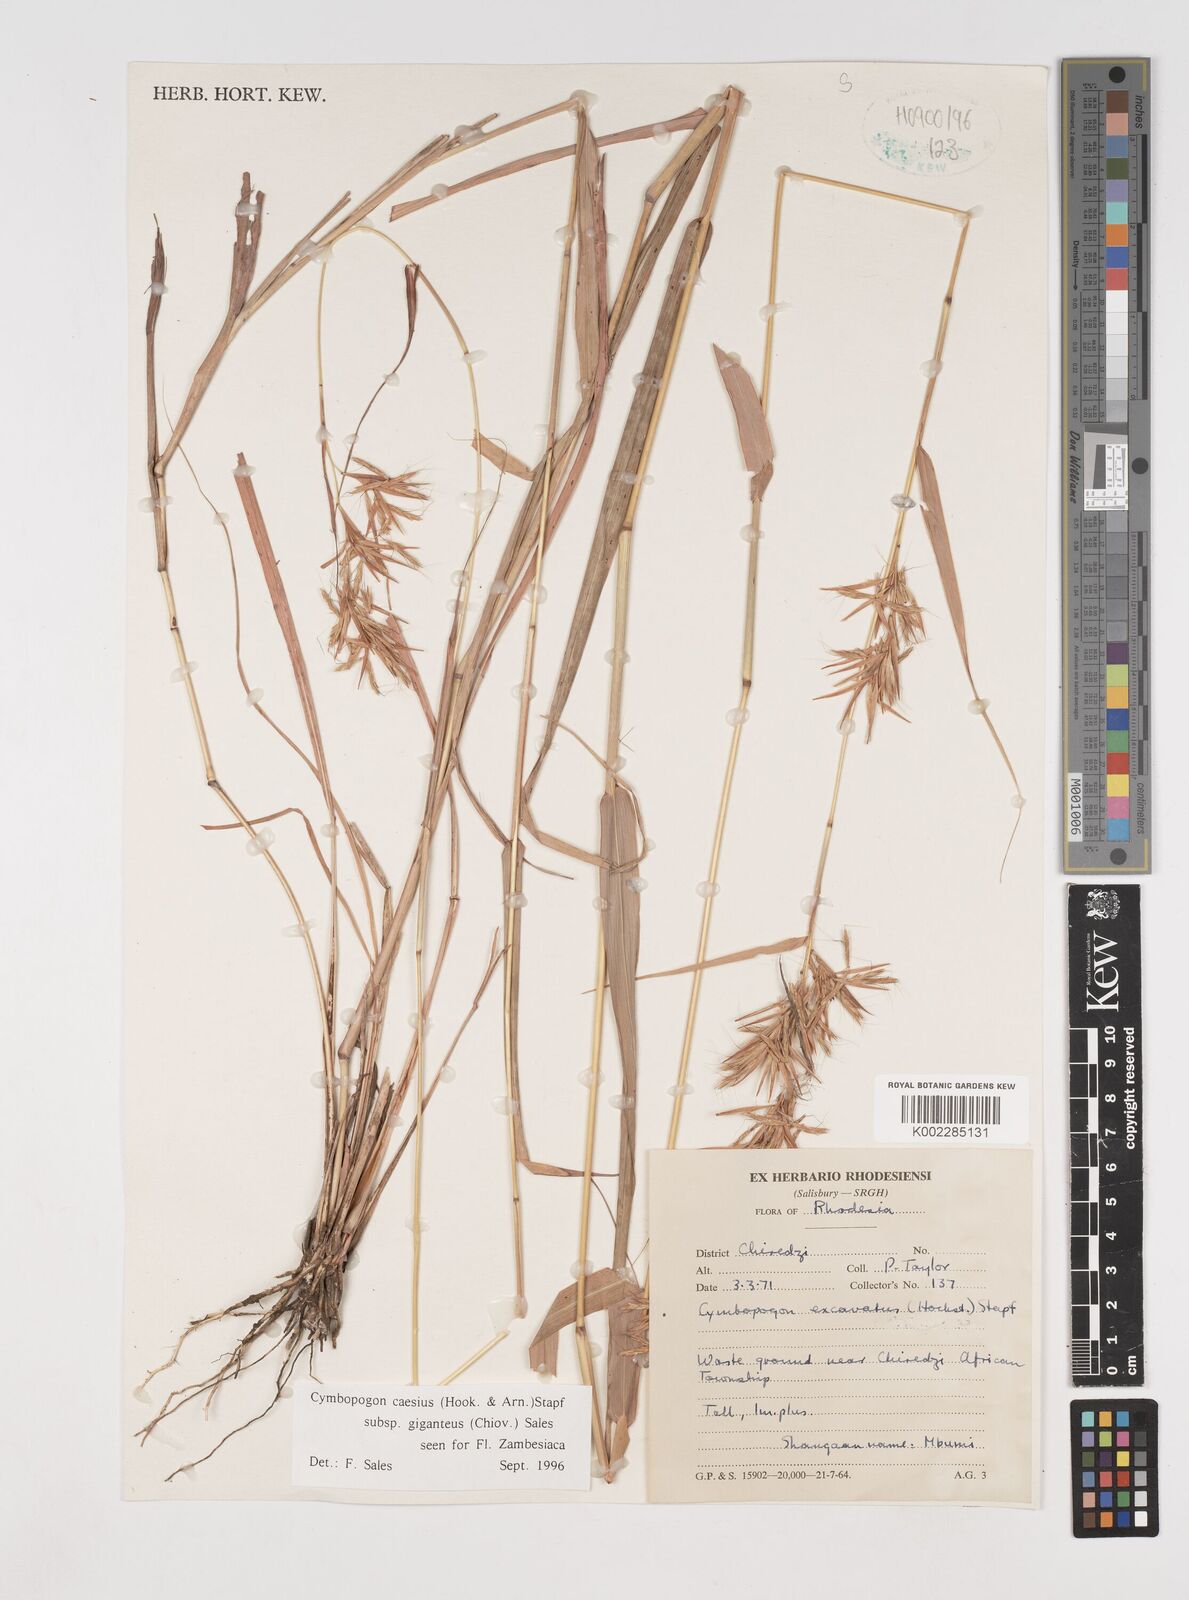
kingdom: Plantae
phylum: Tracheophyta
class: Liliopsida
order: Poales
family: Poaceae
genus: Cymbopogon
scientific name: Cymbopogon giganteus
